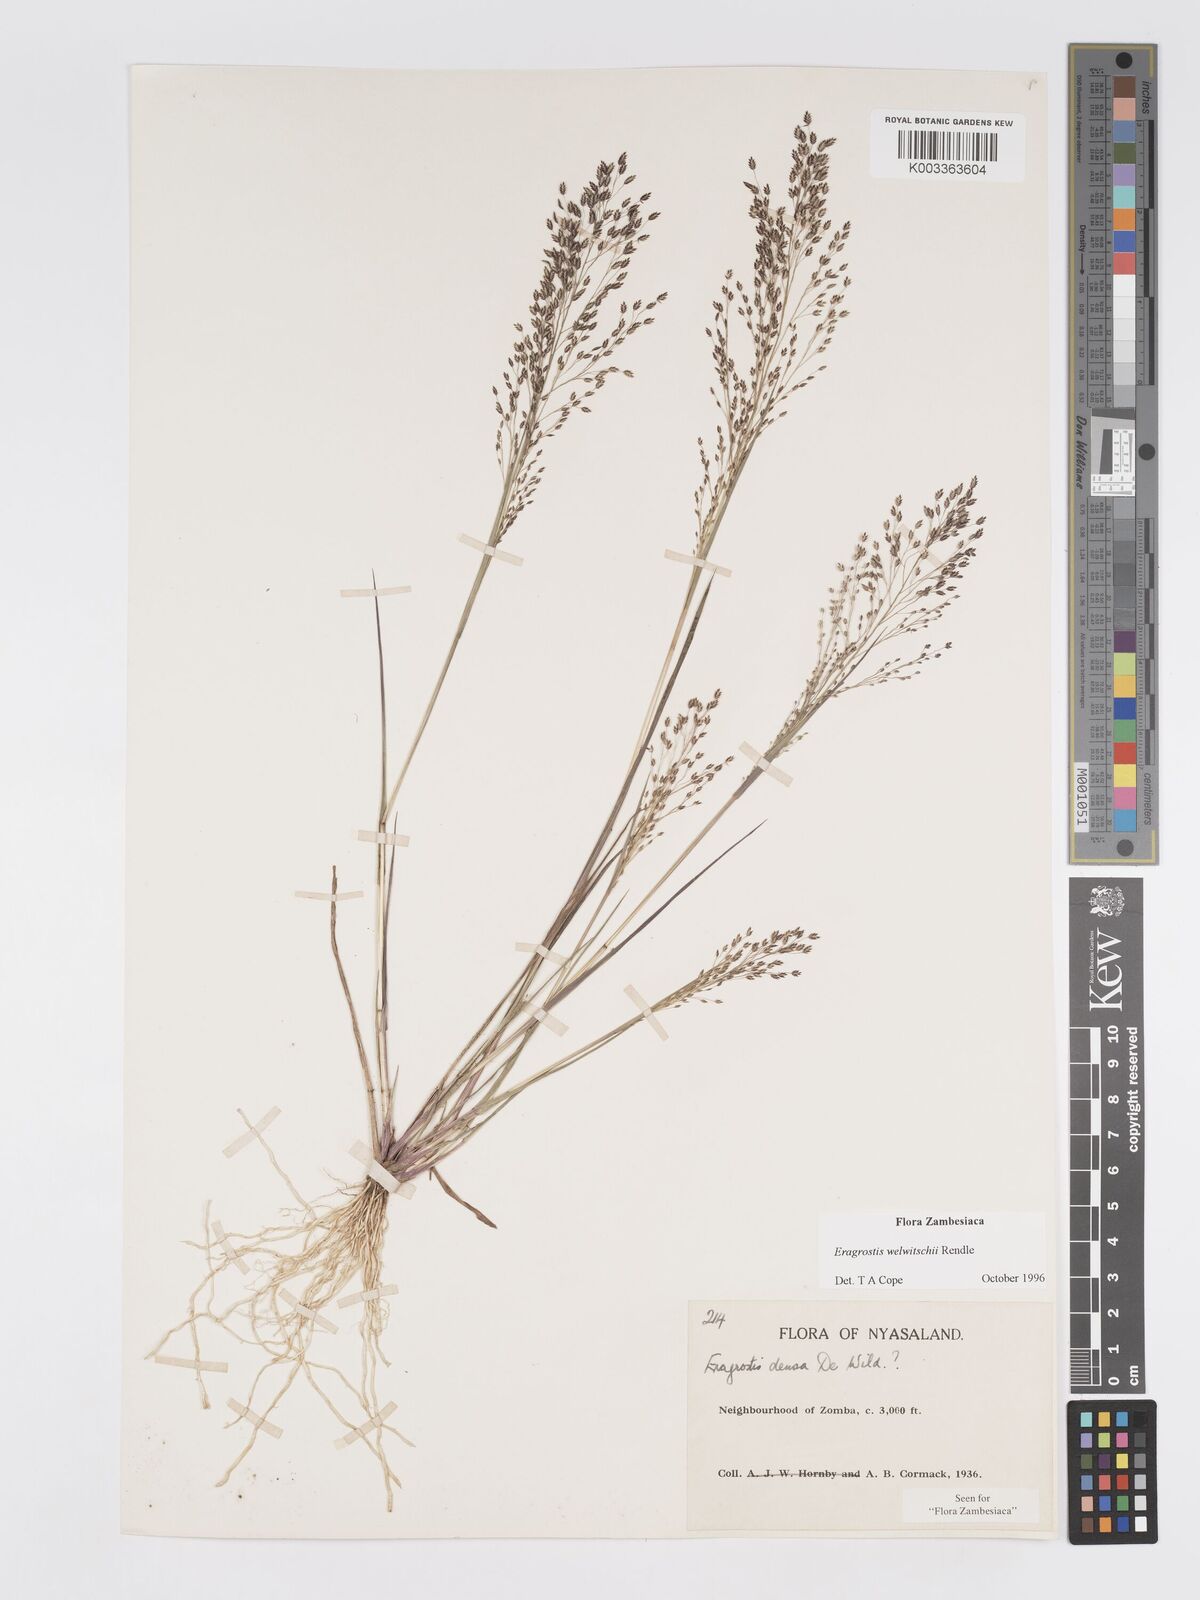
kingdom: Plantae
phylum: Tracheophyta
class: Liliopsida
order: Poales
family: Poaceae
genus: Eragrostis
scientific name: Eragrostis welwitschii
